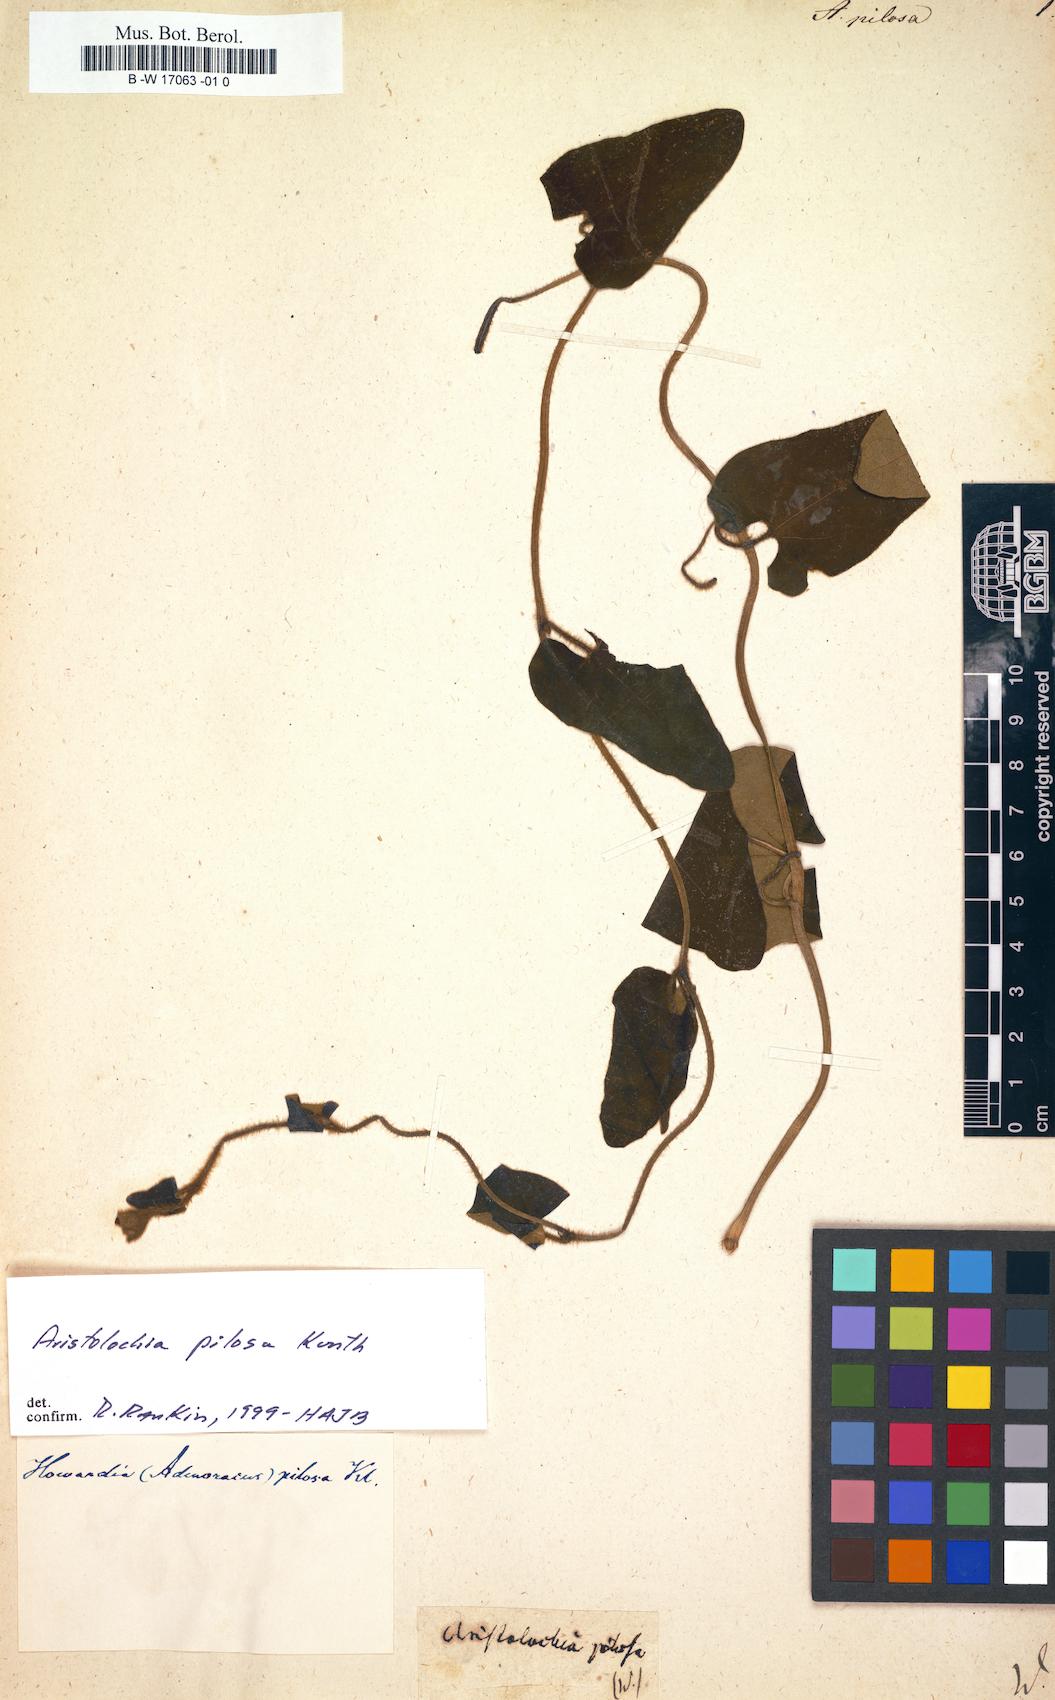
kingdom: Plantae
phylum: Tracheophyta
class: Magnoliopsida
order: Piperales
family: Aristolochiaceae
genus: Aristolochia
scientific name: Aristolochia pilosa
